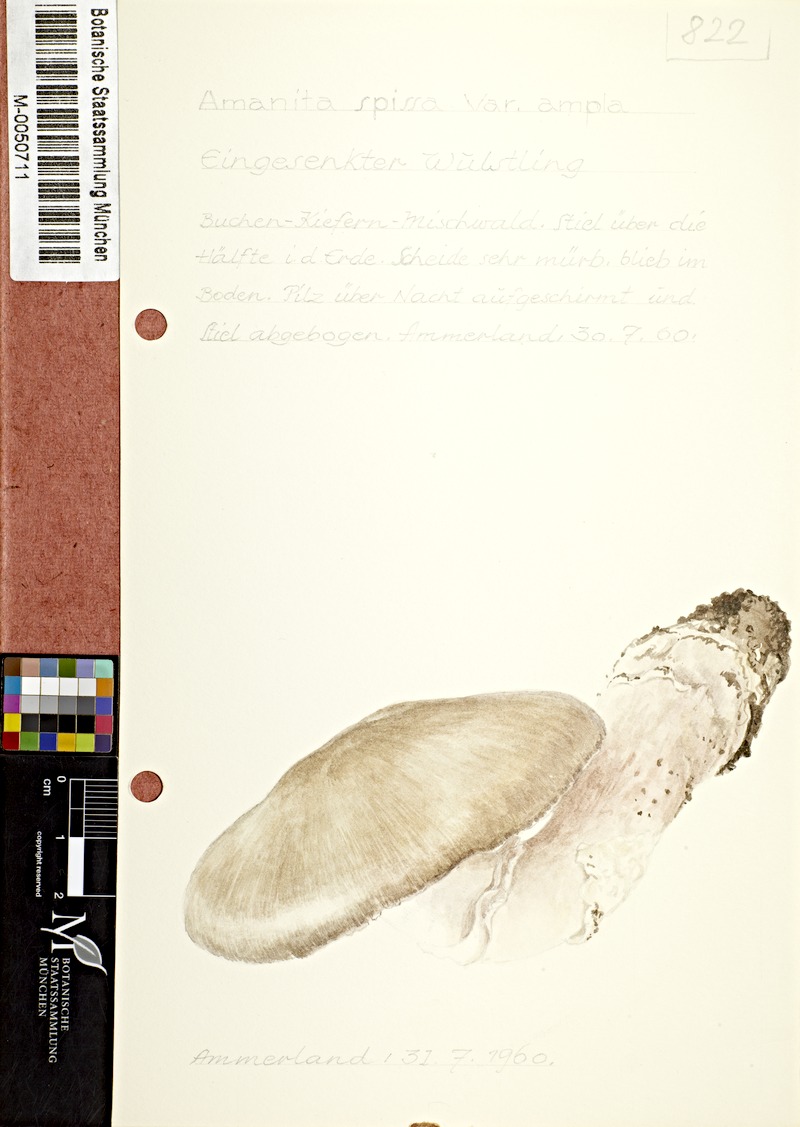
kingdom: Fungi
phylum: Basidiomycota
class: Agaricomycetes
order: Agaricales
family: Amanitaceae
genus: Amanita
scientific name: Amanita excelsa
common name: European false blusher
